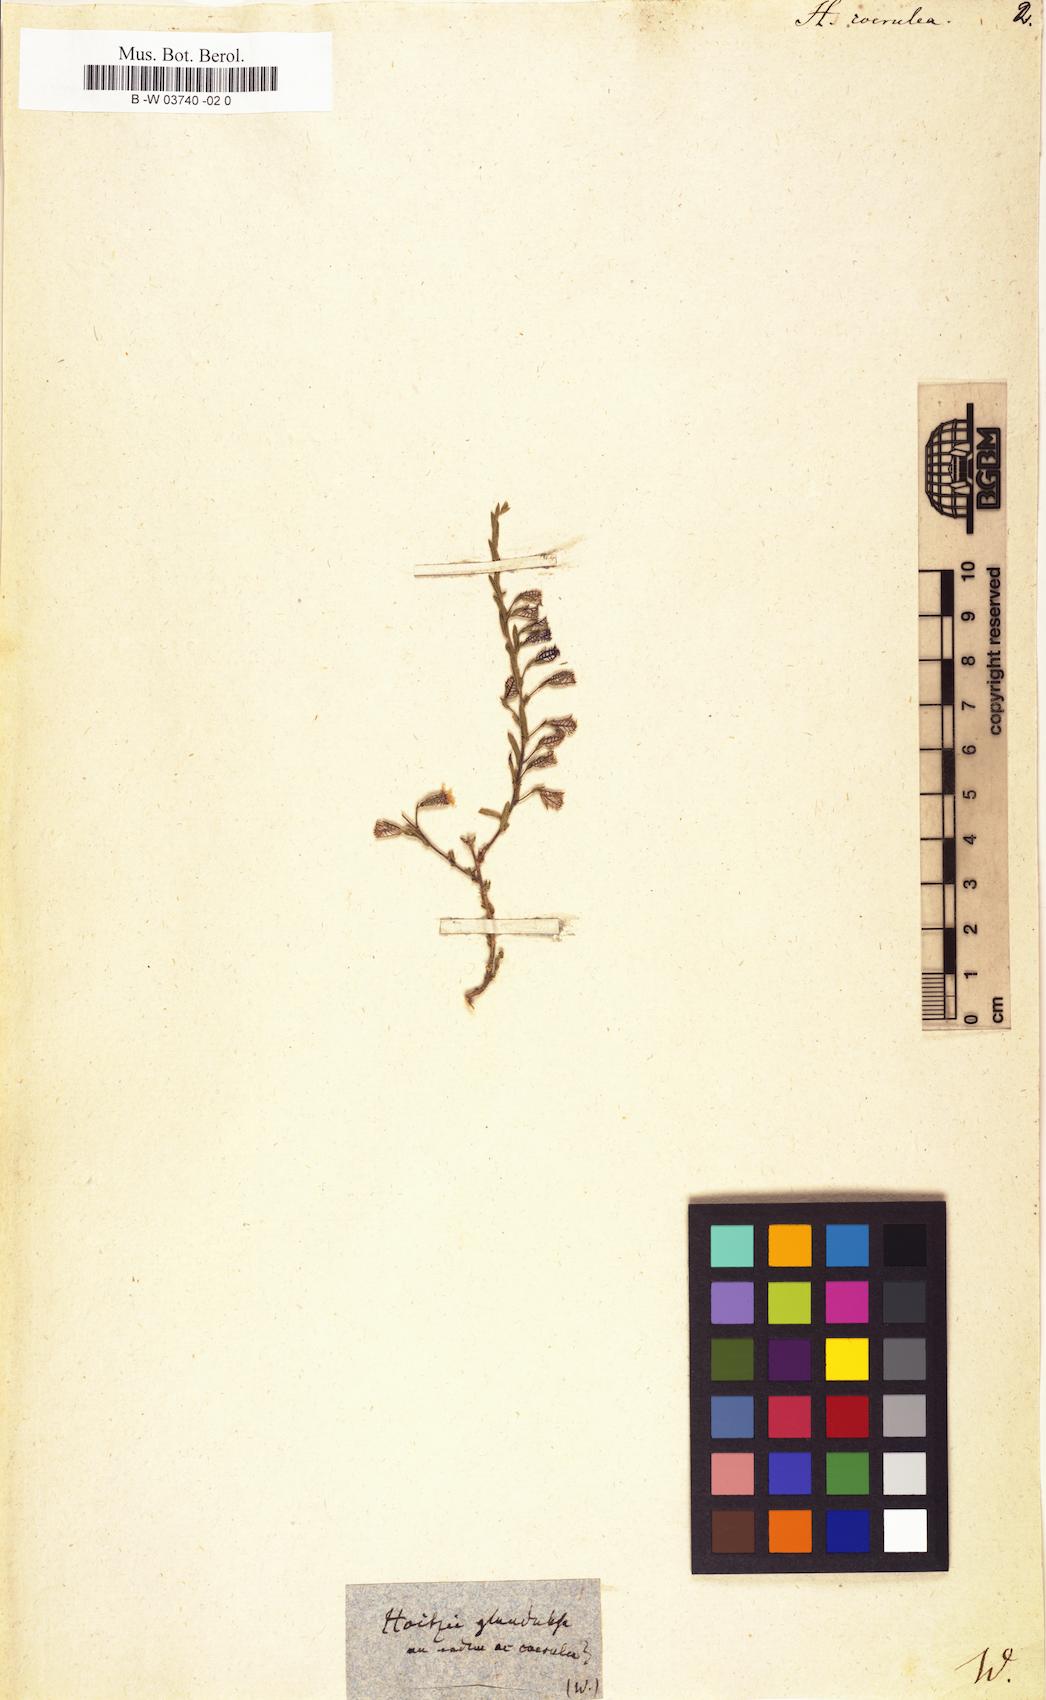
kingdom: Plantae
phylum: Tracheophyta
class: Magnoliopsida
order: Ericales
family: Polemoniaceae
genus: Loeselia
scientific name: Loeselia coerulea
